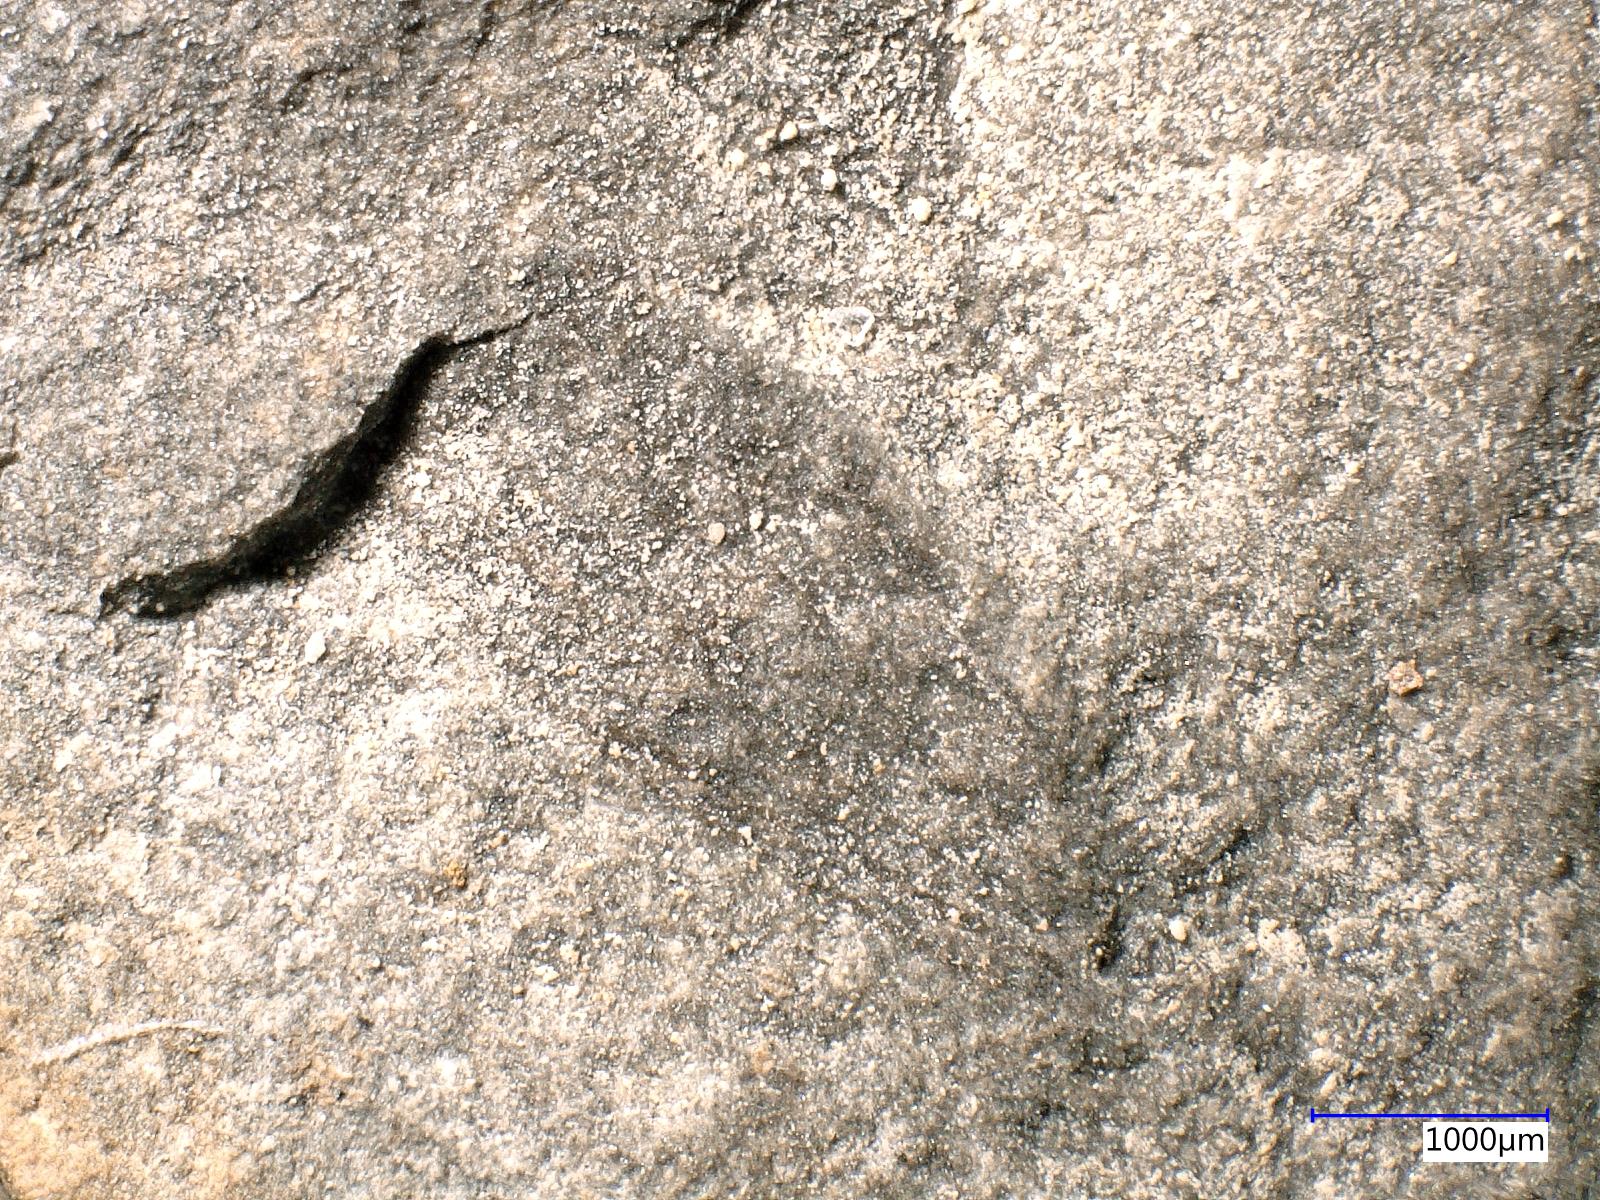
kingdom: Animalia
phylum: Arthropoda
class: Insecta
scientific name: Insecta
